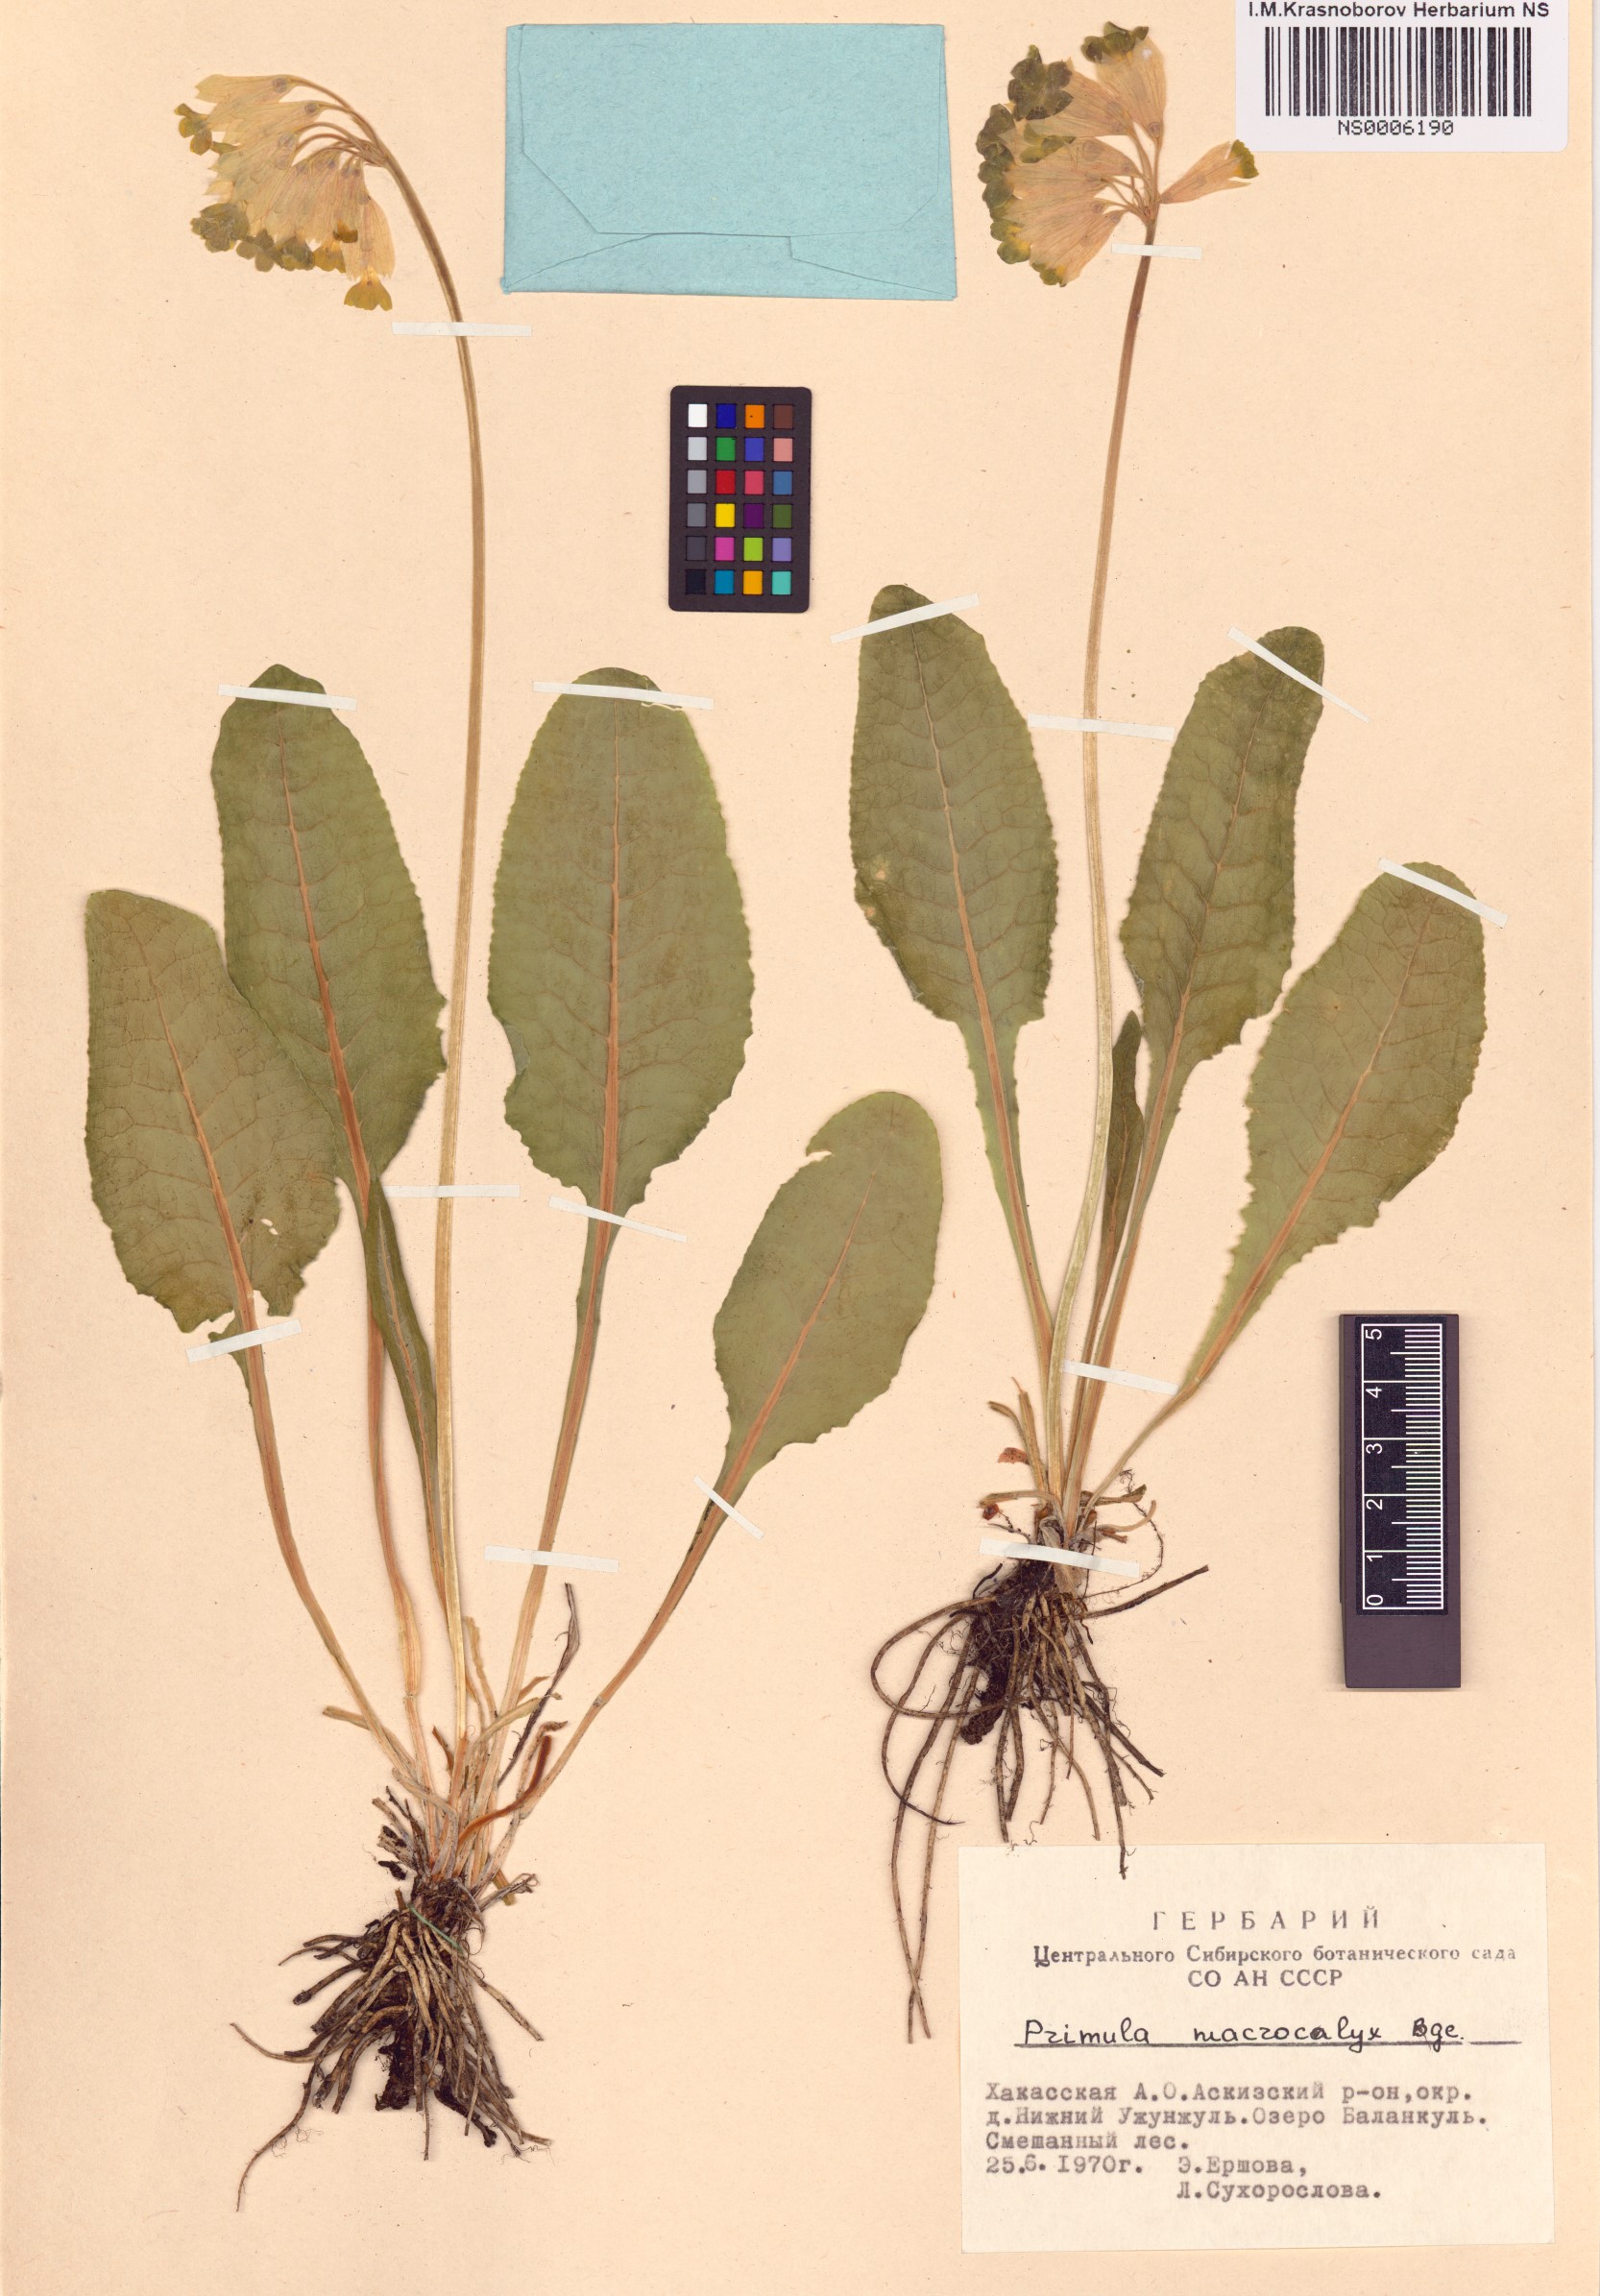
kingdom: Plantae
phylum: Tracheophyta
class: Magnoliopsida
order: Ericales
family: Primulaceae
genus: Primula
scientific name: Primula veris
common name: Cowslip
